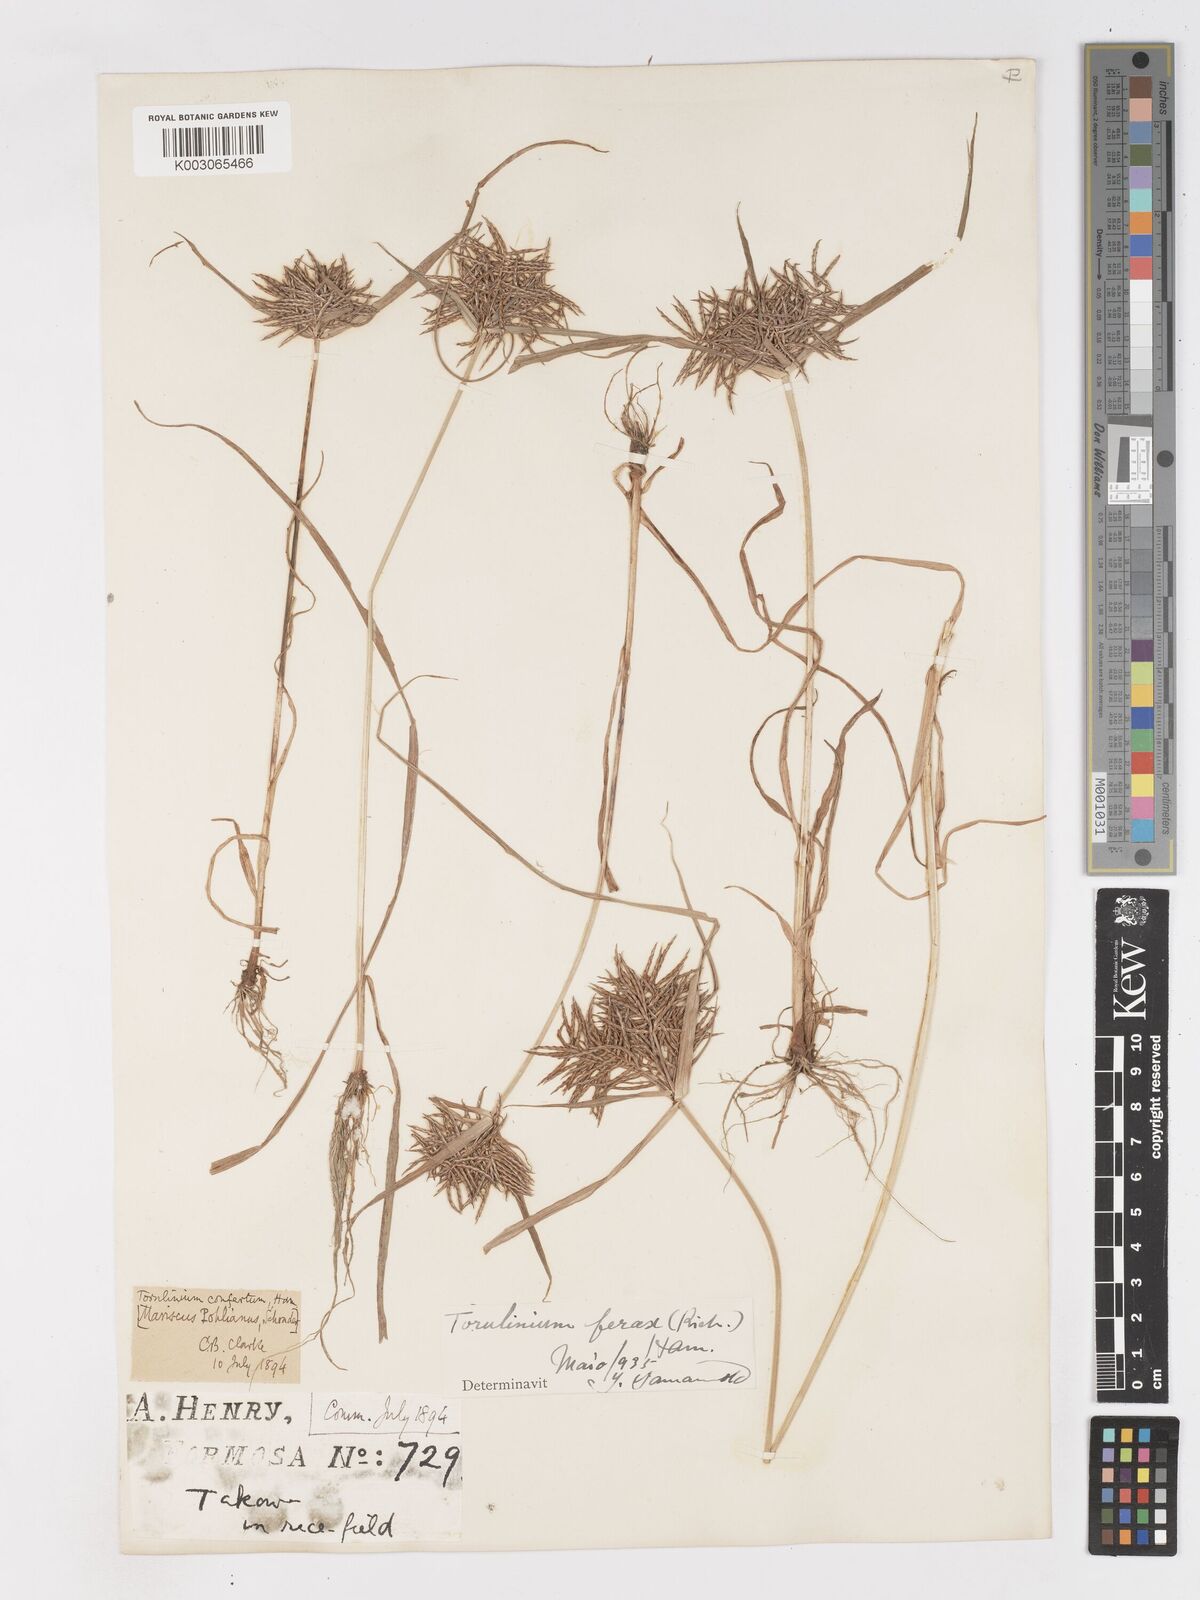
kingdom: Plantae
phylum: Tracheophyta
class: Liliopsida
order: Poales
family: Cyperaceae
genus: Cyperus
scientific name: Cyperus odoratus
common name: Fragrant flatsedge
